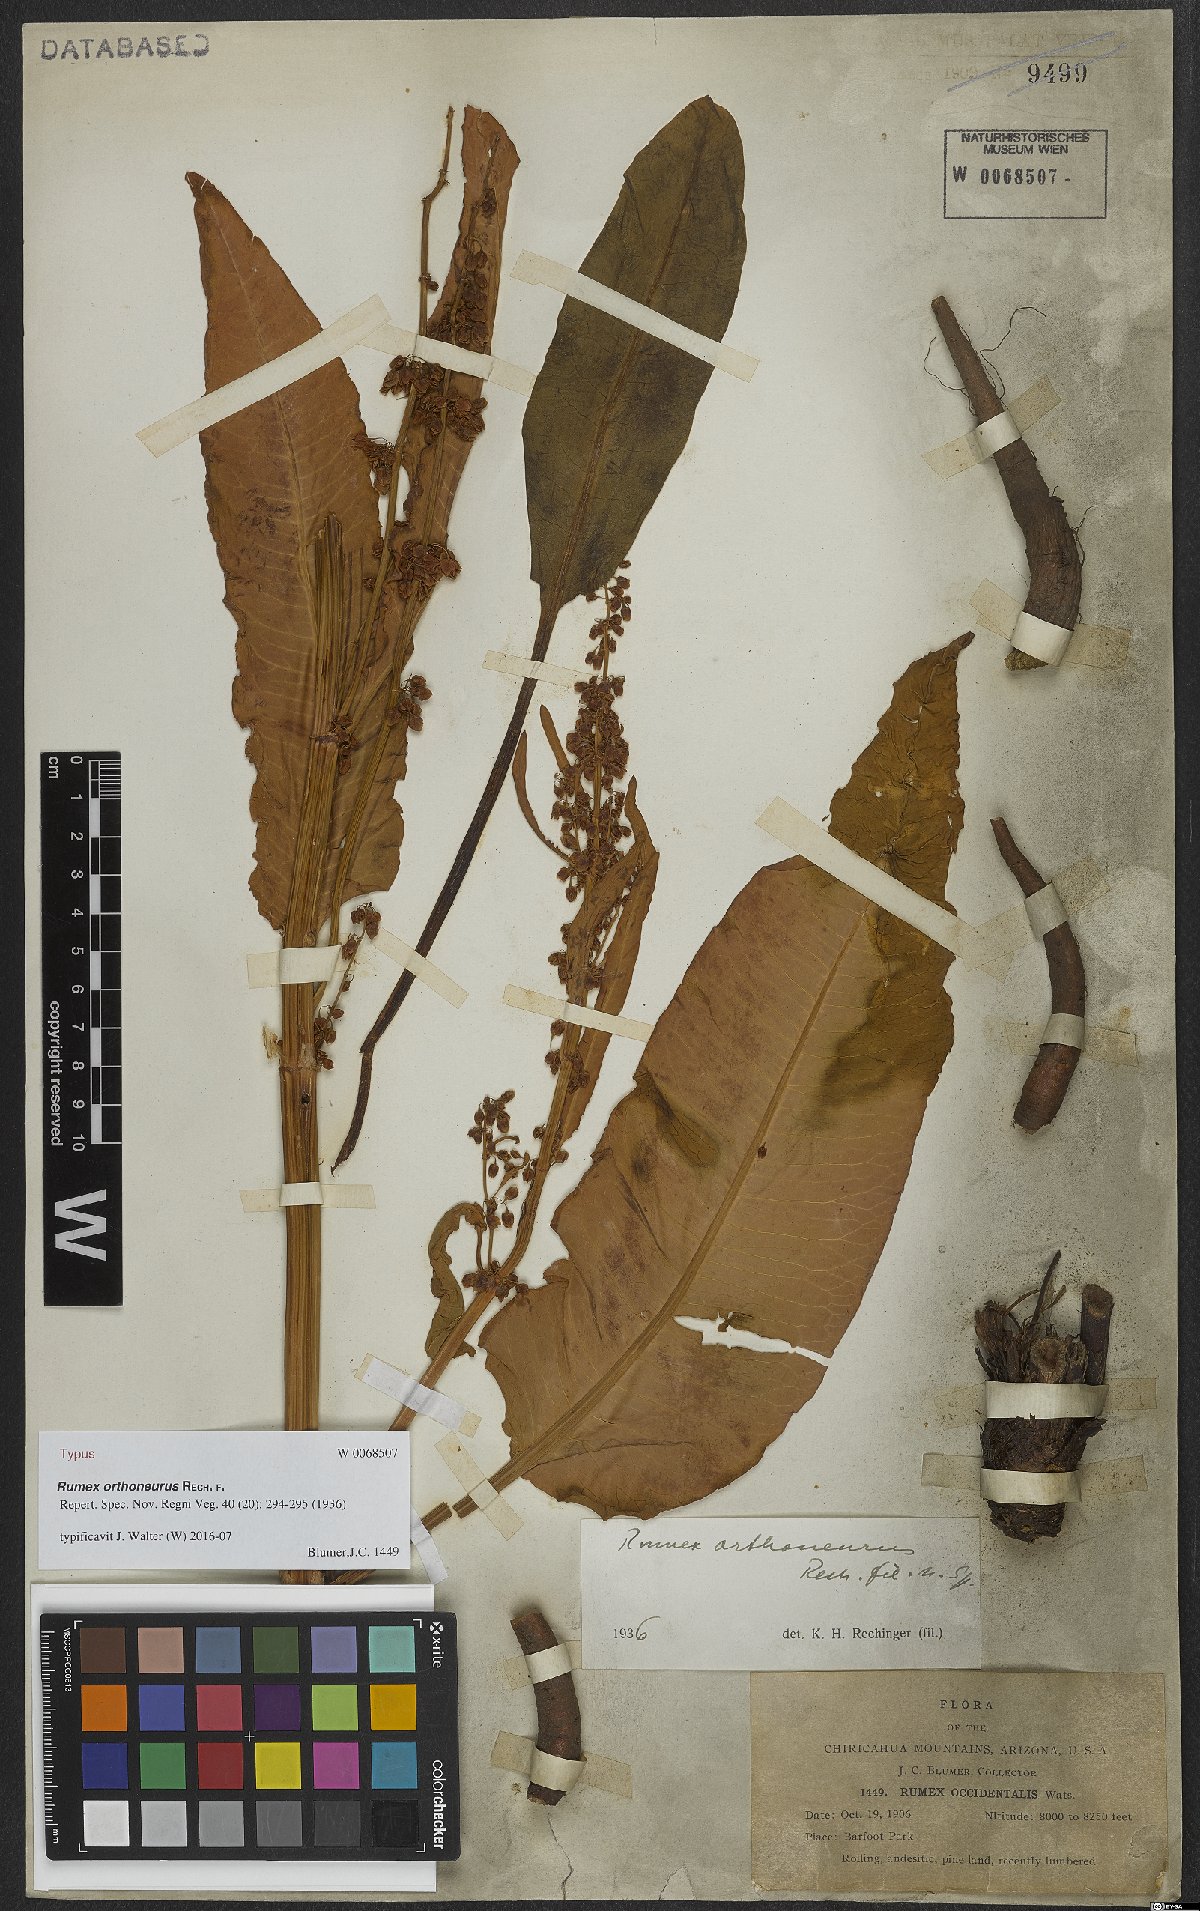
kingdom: Plantae
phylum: Tracheophyta
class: Magnoliopsida
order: Caryophyllales
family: Polygonaceae
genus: Rumex
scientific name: Rumex orthoneurus
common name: Chiricahua dock
